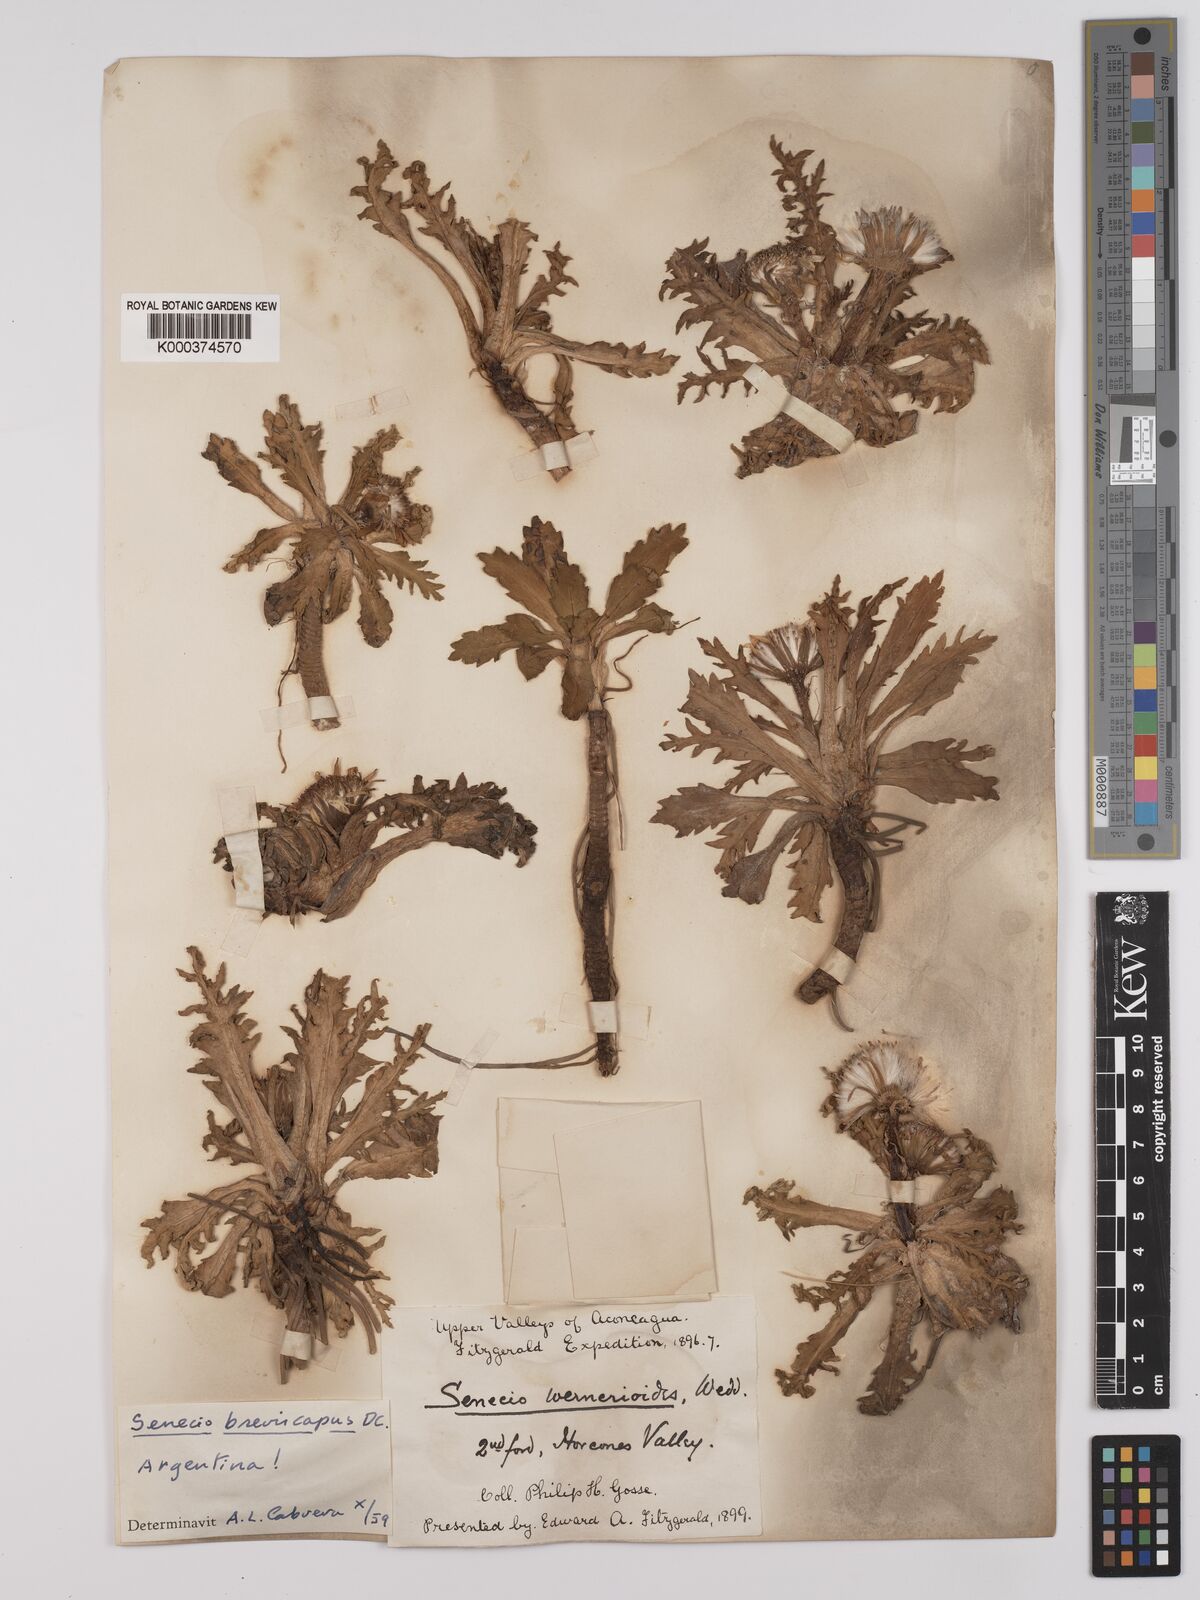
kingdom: Plantae
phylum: Tracheophyta
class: Magnoliopsida
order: Asterales
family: Asteraceae
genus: Curio
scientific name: Curio cicatricosus
